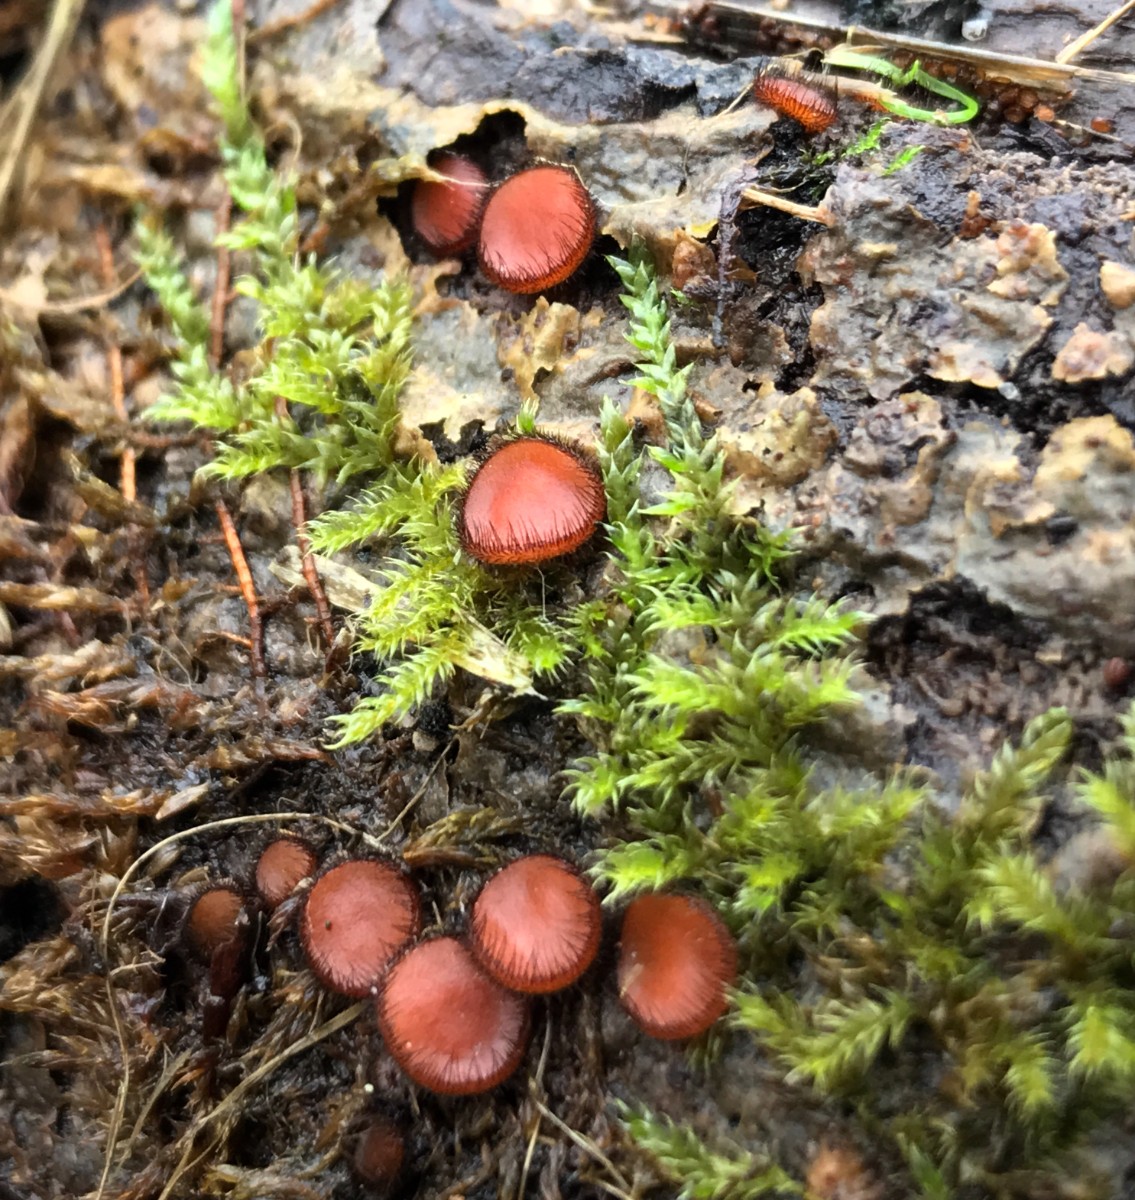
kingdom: Fungi
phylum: Ascomycota
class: Pezizomycetes
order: Pezizales
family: Pyronemataceae
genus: Scutellinia
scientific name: Scutellinia scutellata
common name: frynset skjoldbæger
